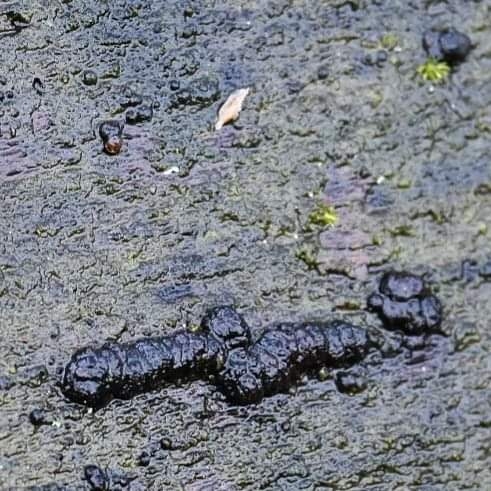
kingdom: Fungi
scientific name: Fungi
